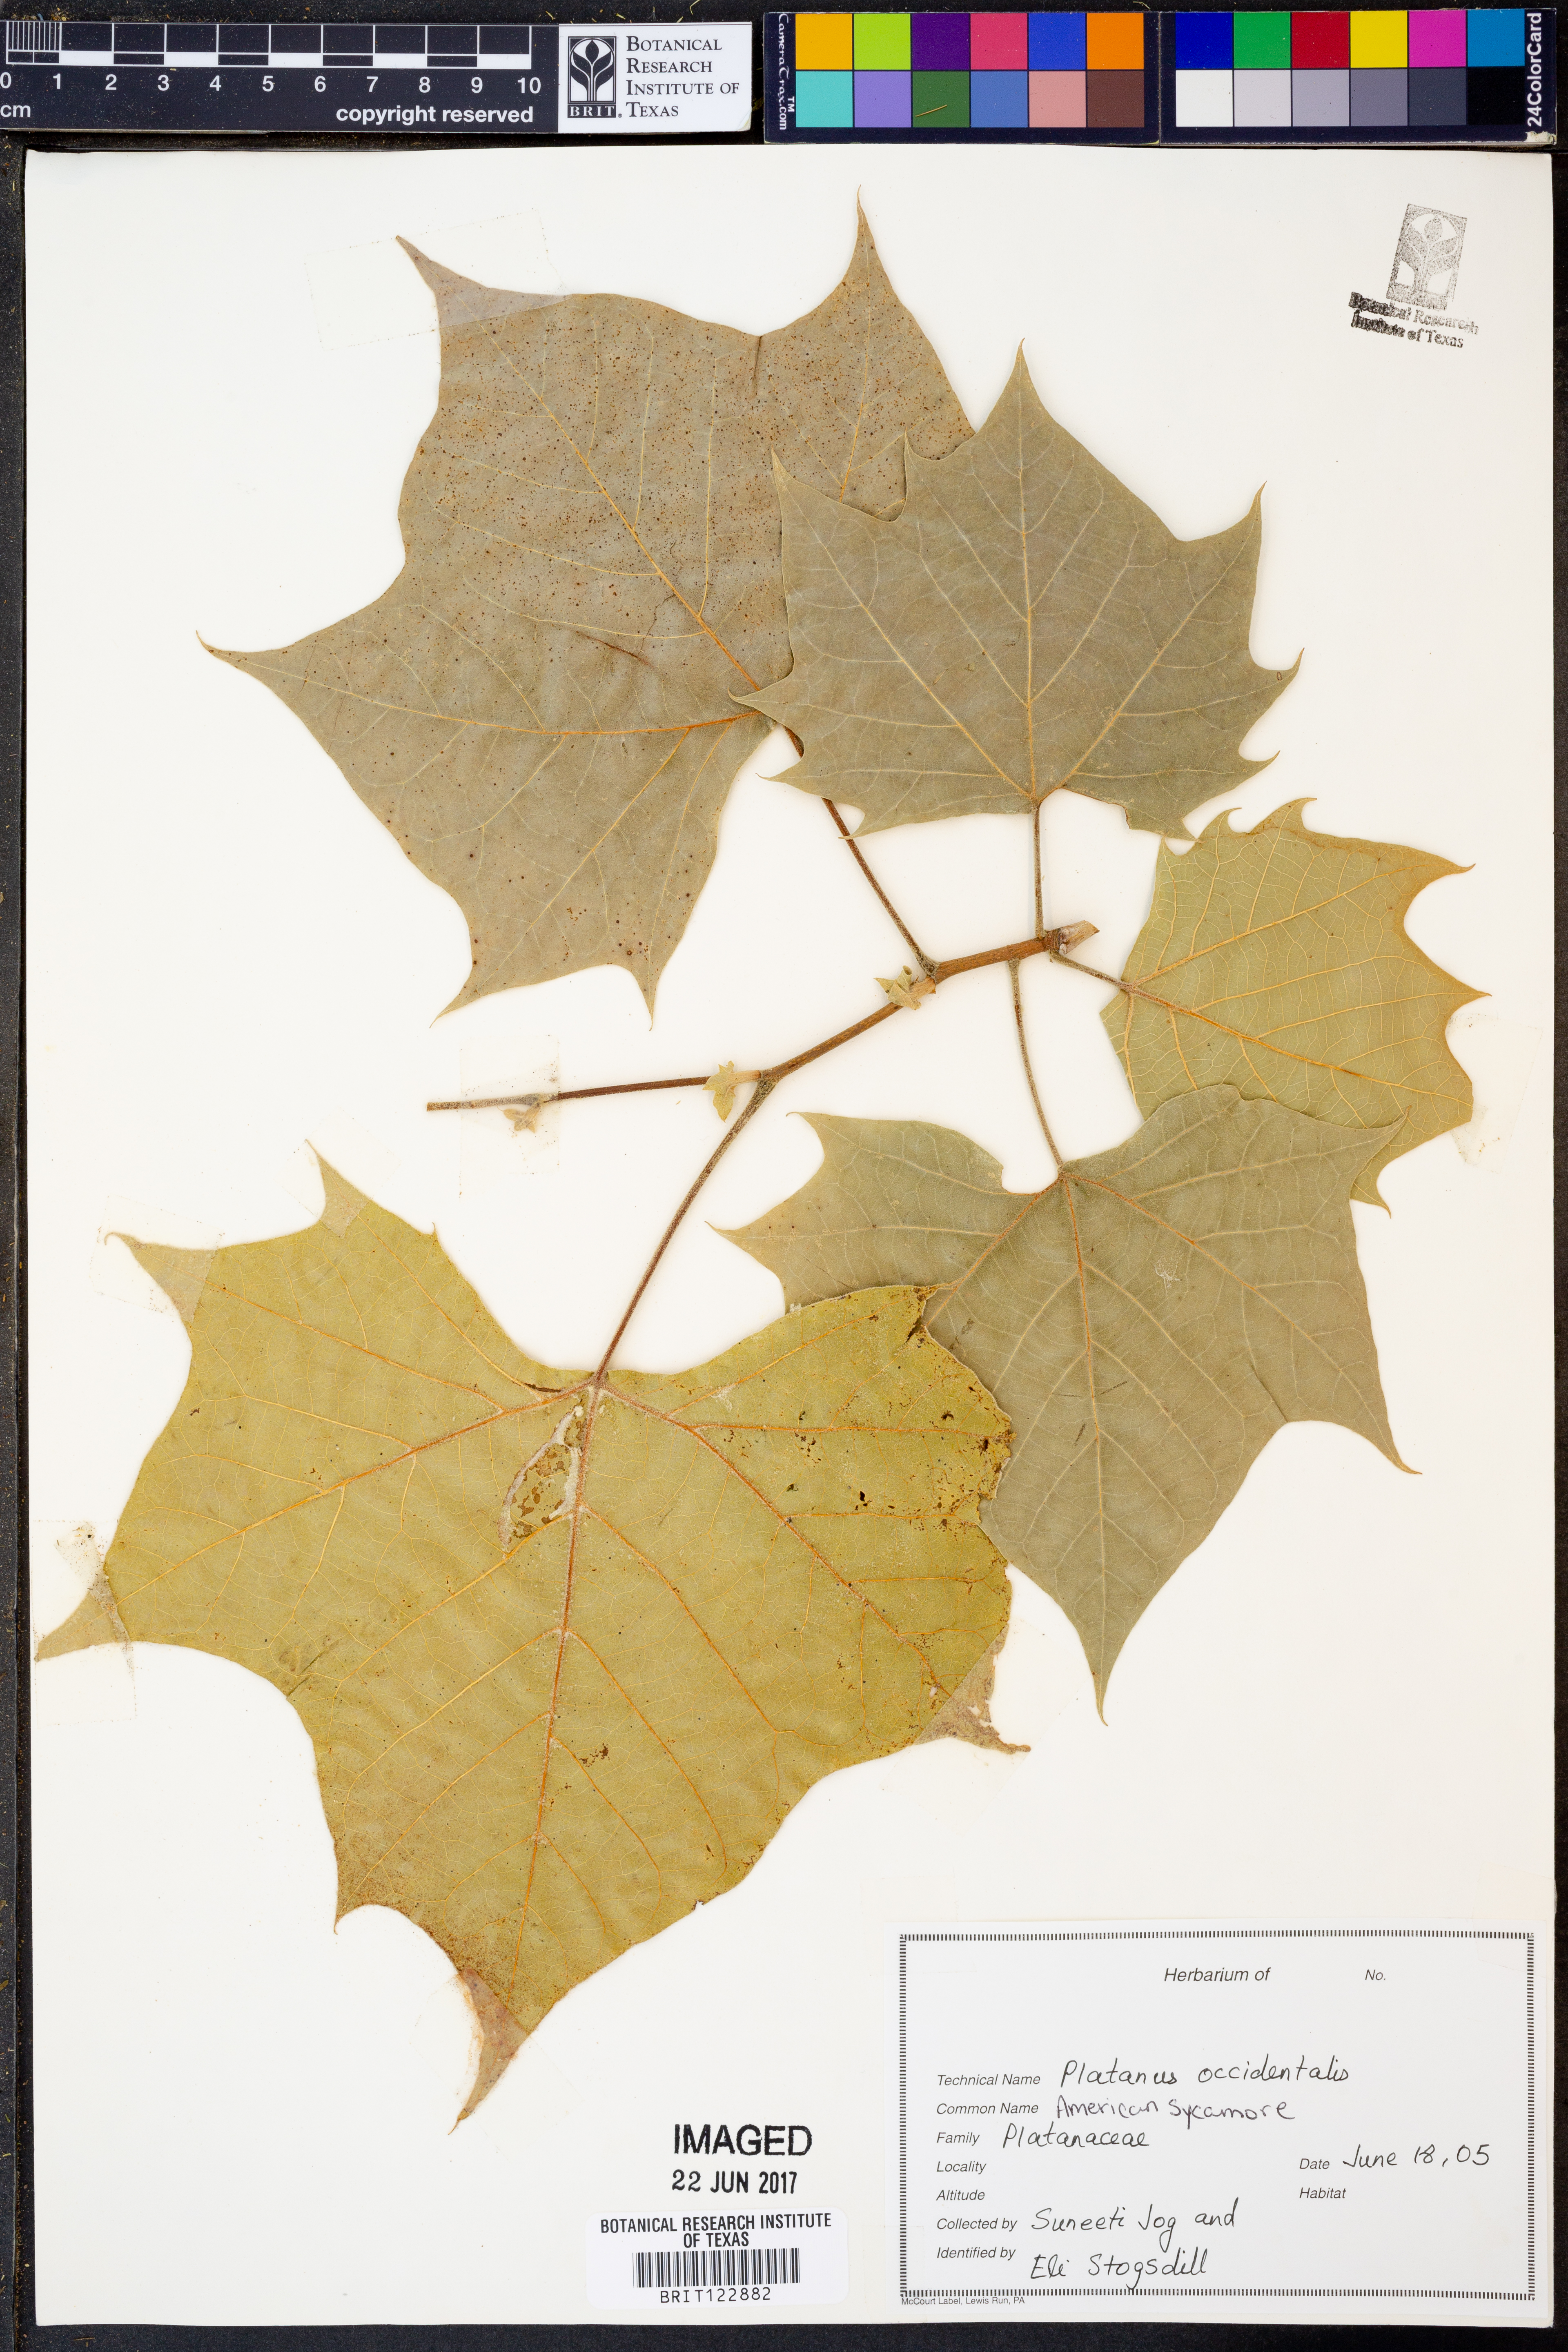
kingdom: Plantae
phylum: Tracheophyta
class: Magnoliopsida
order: Proteales
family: Platanaceae
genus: Platanus
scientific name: Platanus occidentalis
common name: American sycamore
